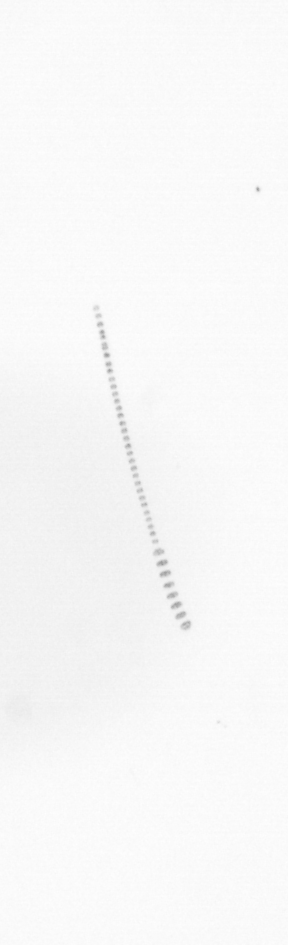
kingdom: Chromista
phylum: Ochrophyta
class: Bacillariophyceae
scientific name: Bacillariophyceae
